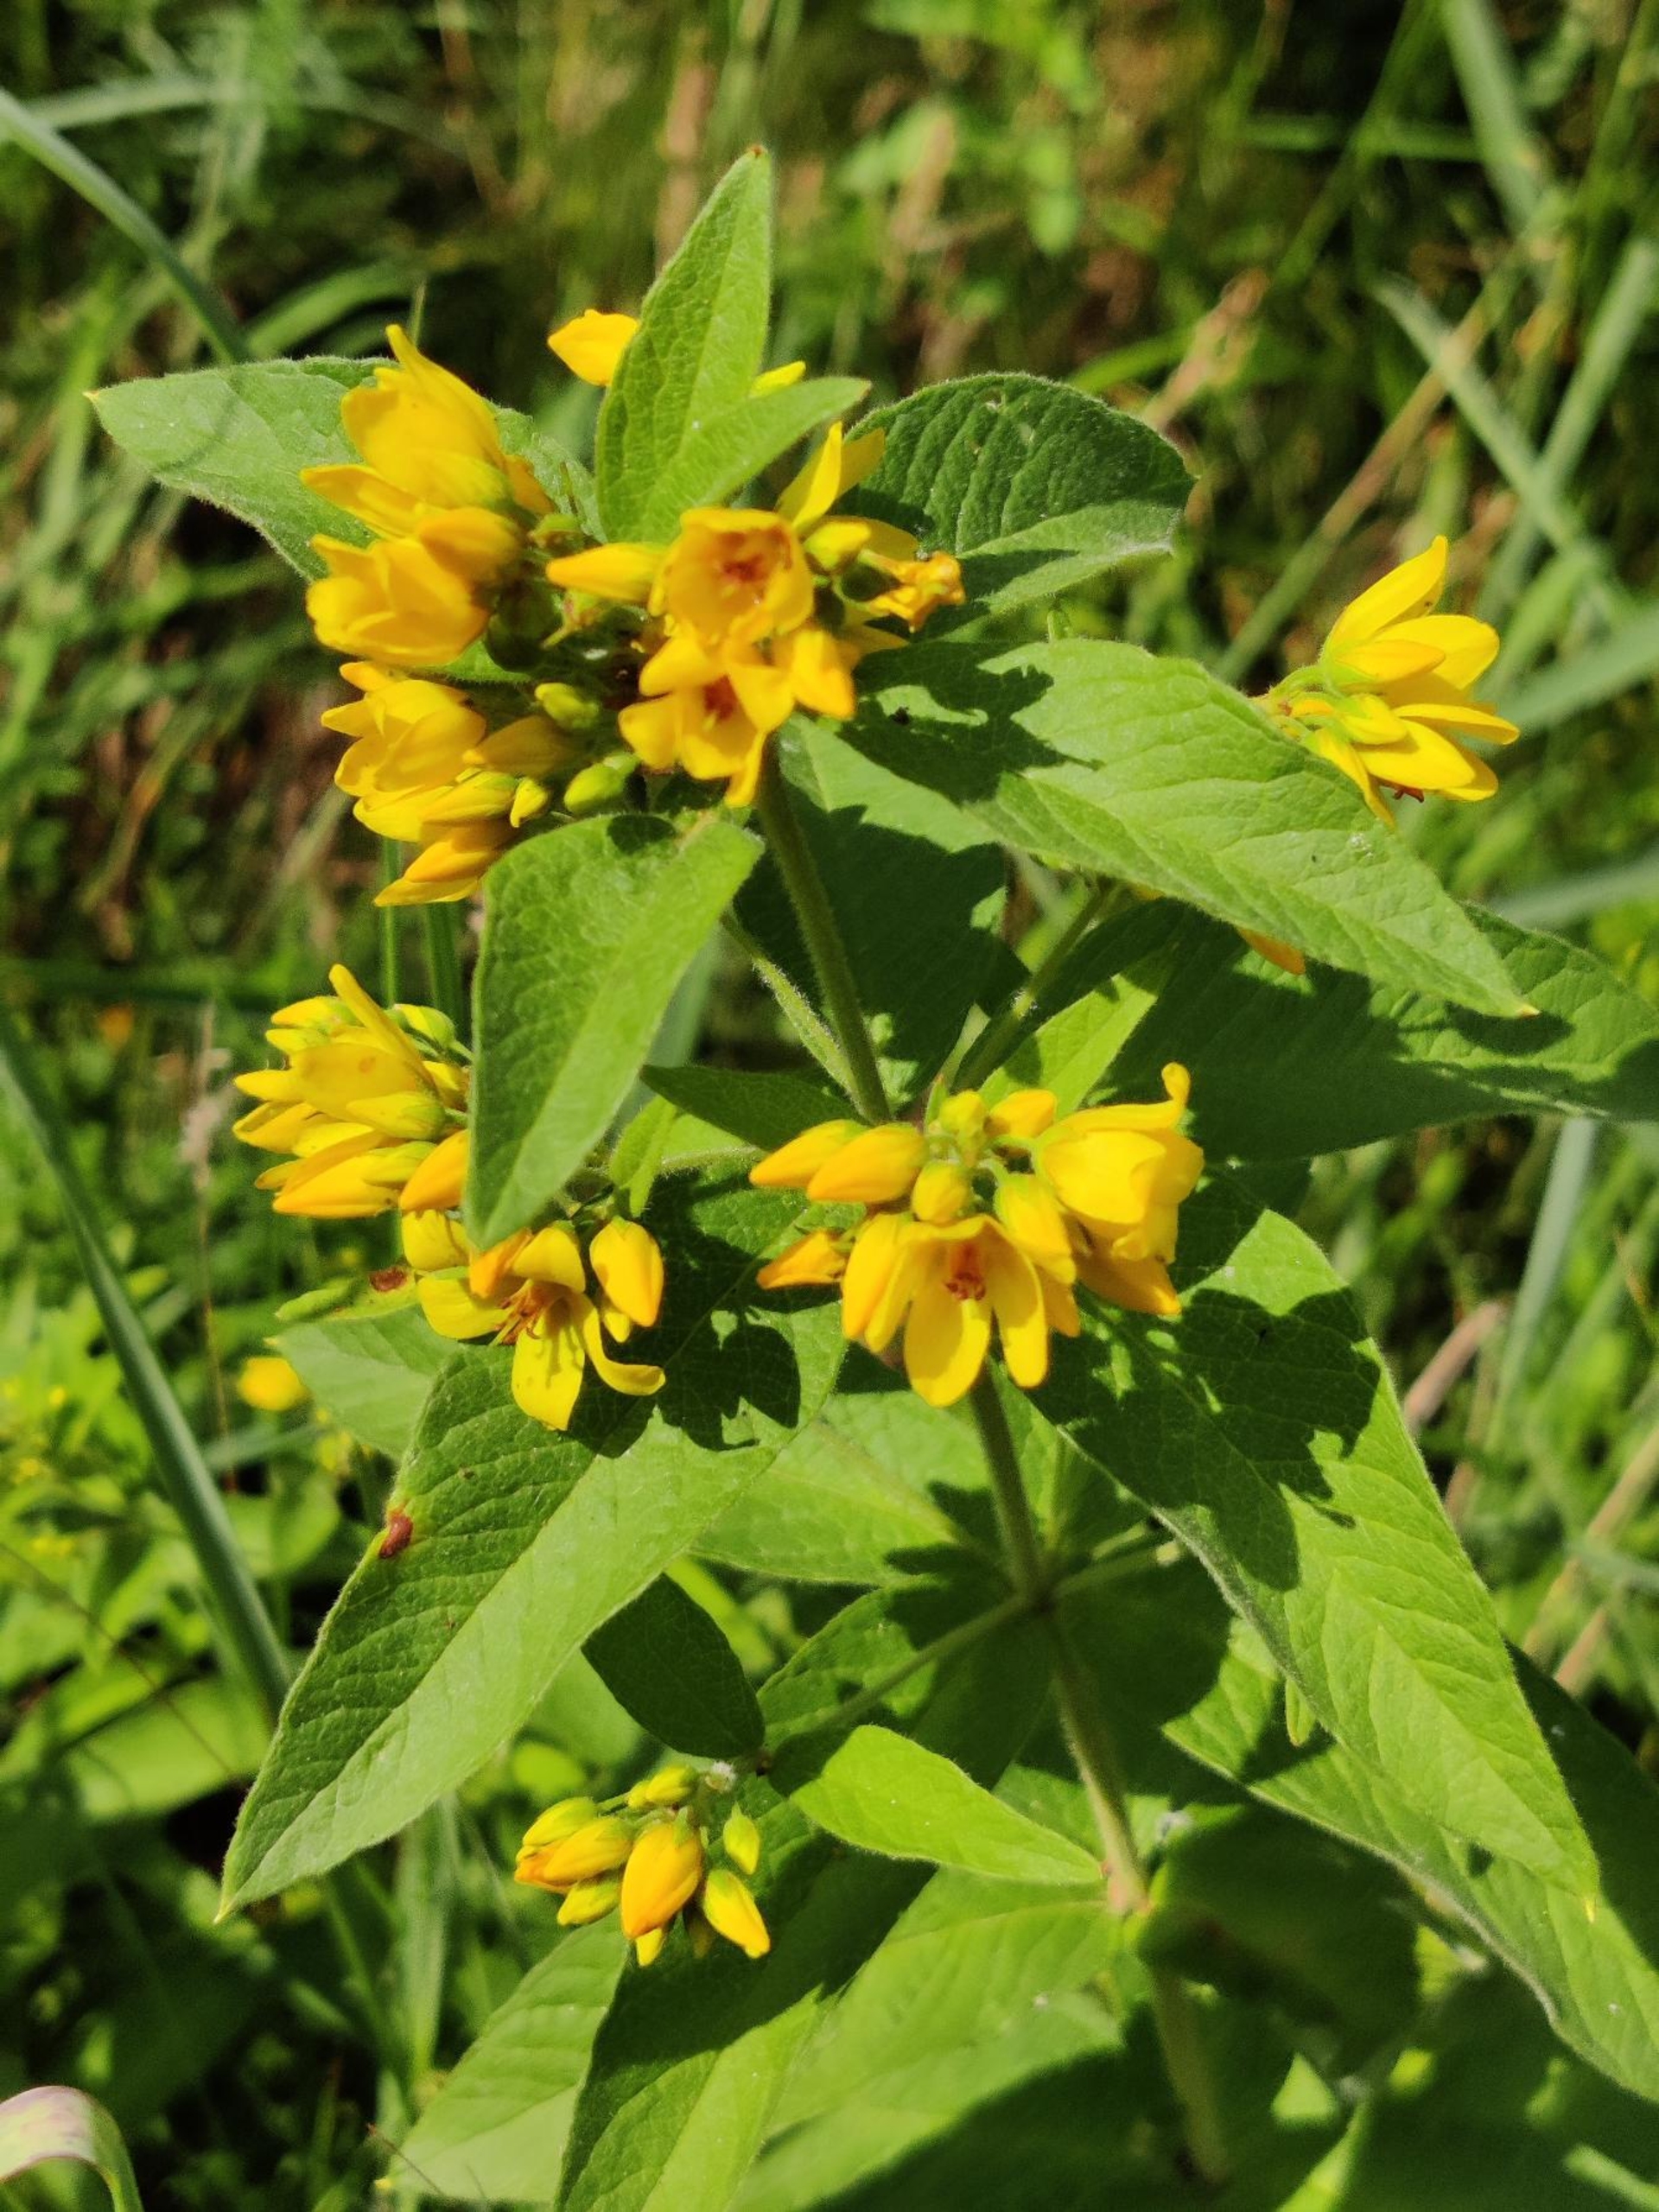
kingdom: Plantae
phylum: Tracheophyta
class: Magnoliopsida
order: Ericales
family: Primulaceae
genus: Lysimachia
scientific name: Lysimachia vulgaris
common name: Almindelig fredløs
